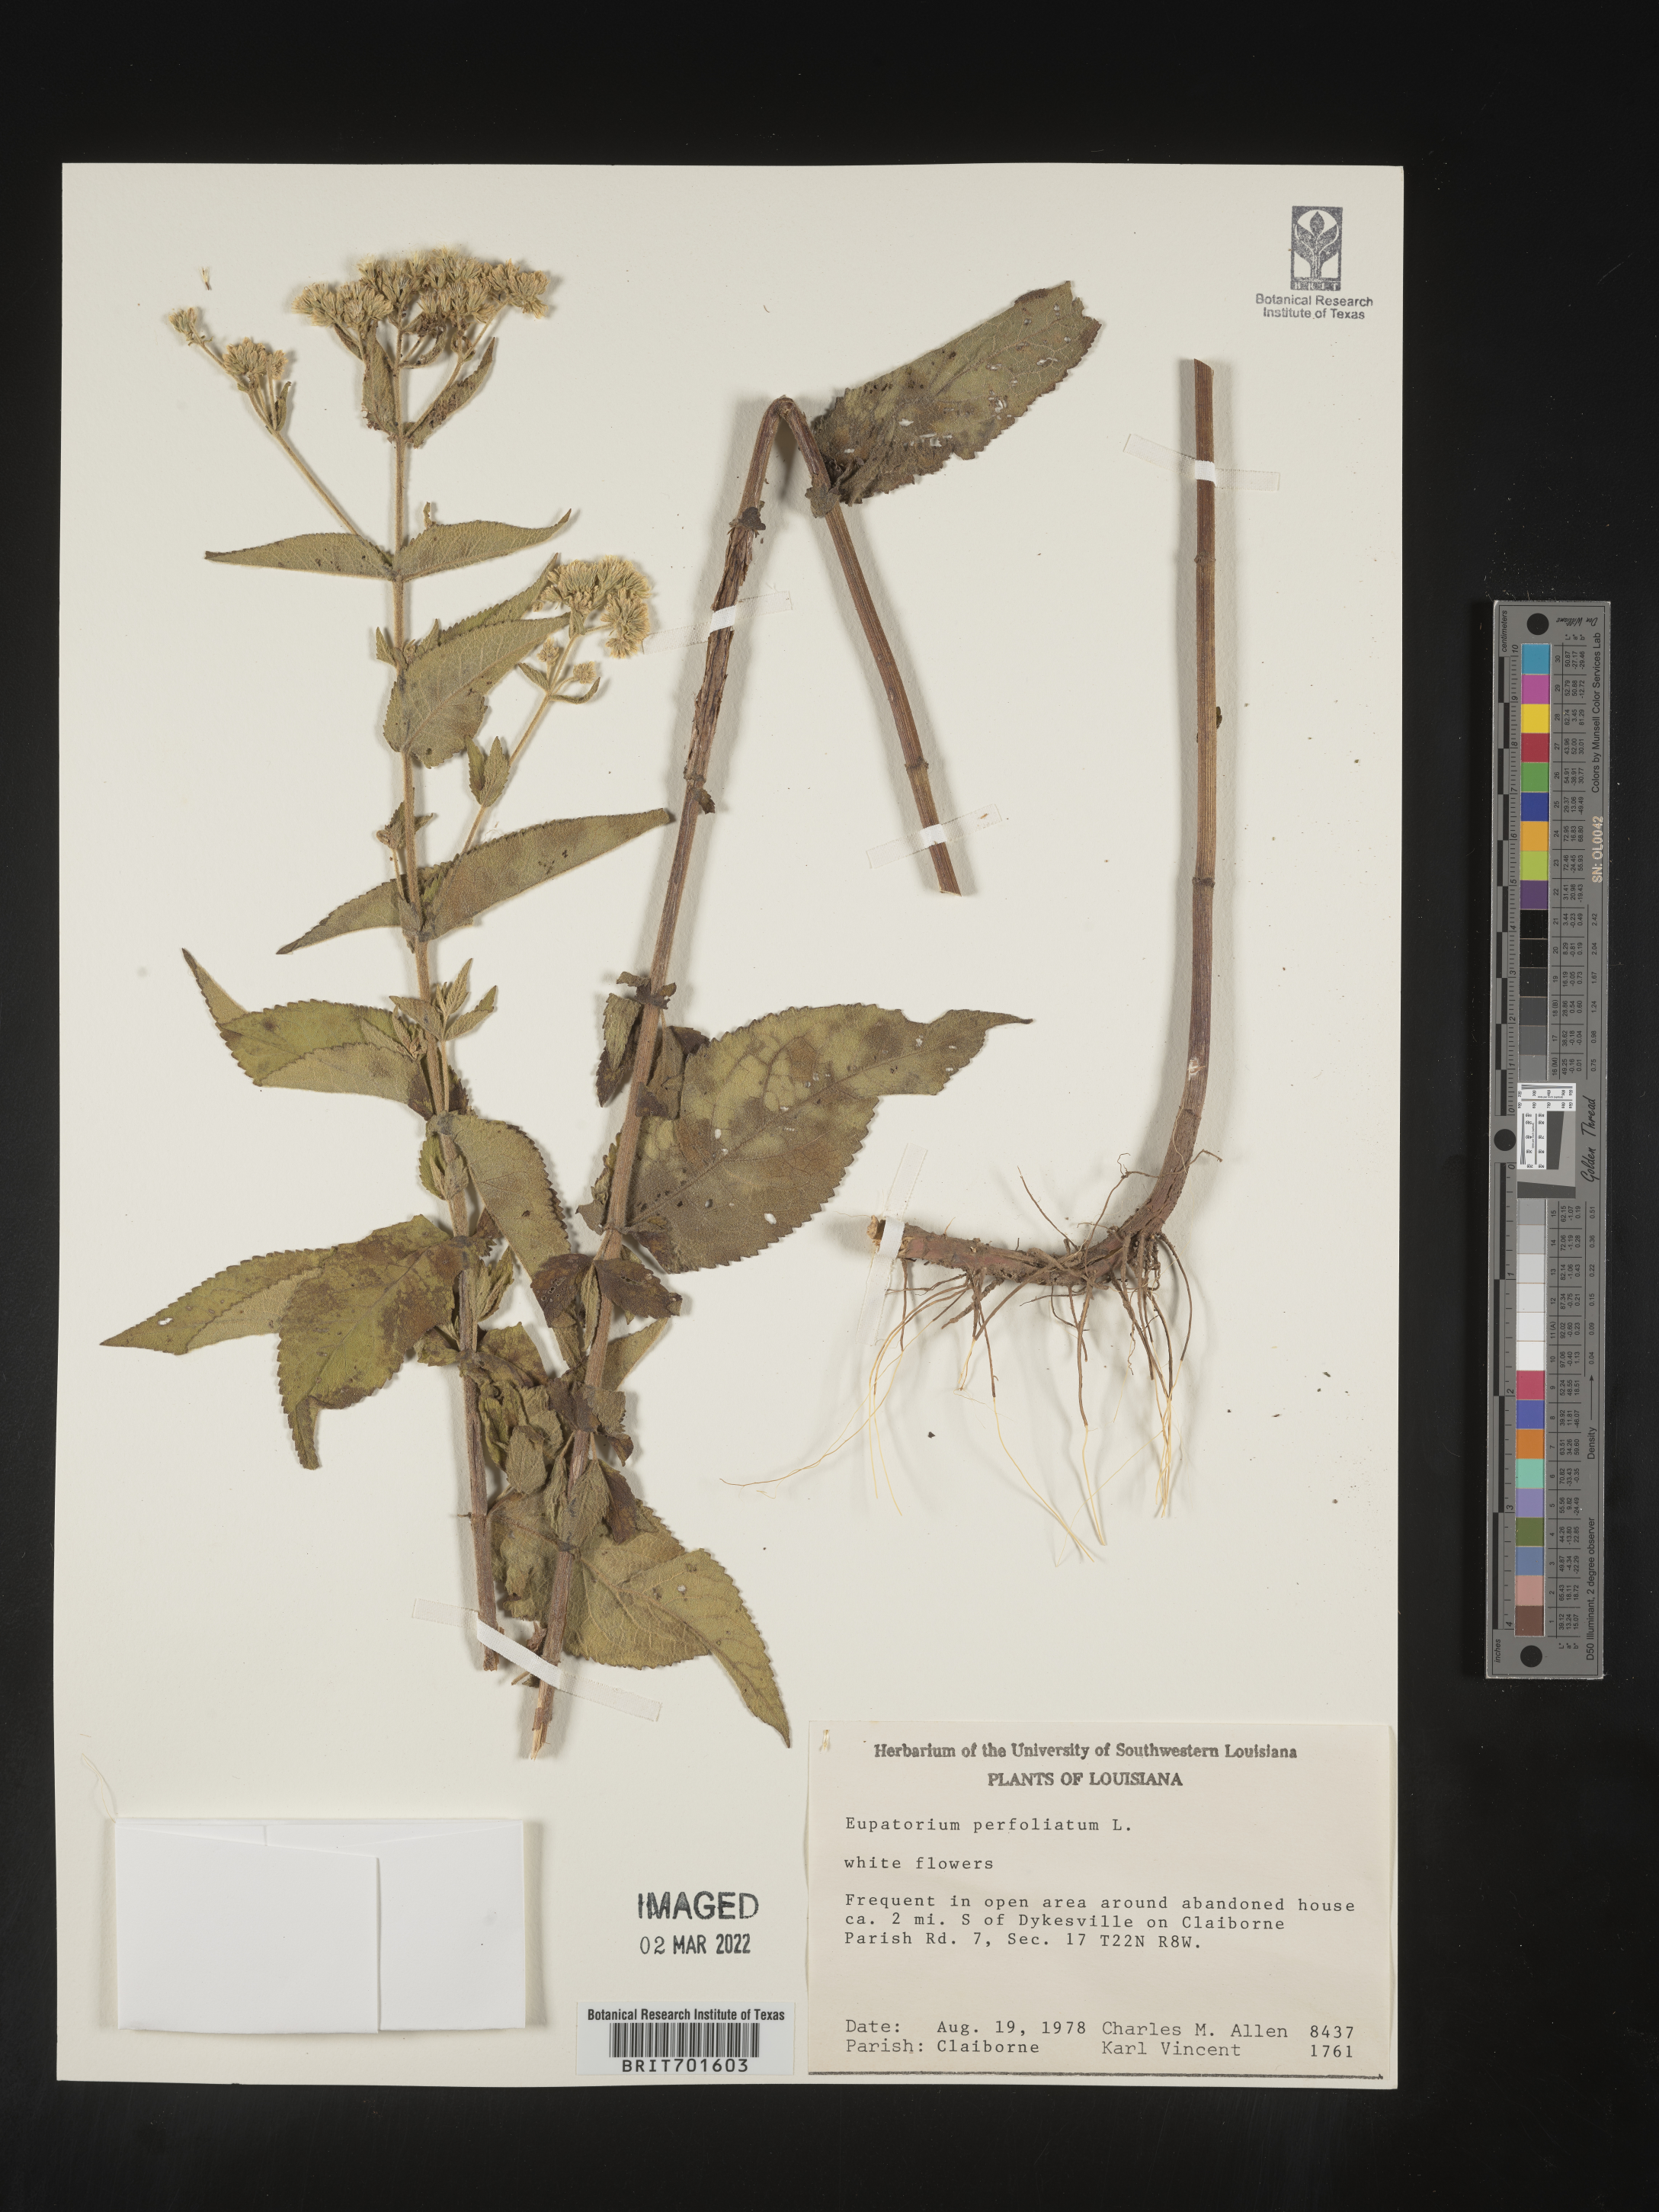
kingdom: Plantae
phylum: Tracheophyta
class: Magnoliopsida
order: Asterales
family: Asteraceae
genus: Eupatorium
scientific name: Eupatorium perfoliatum
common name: Boneset
